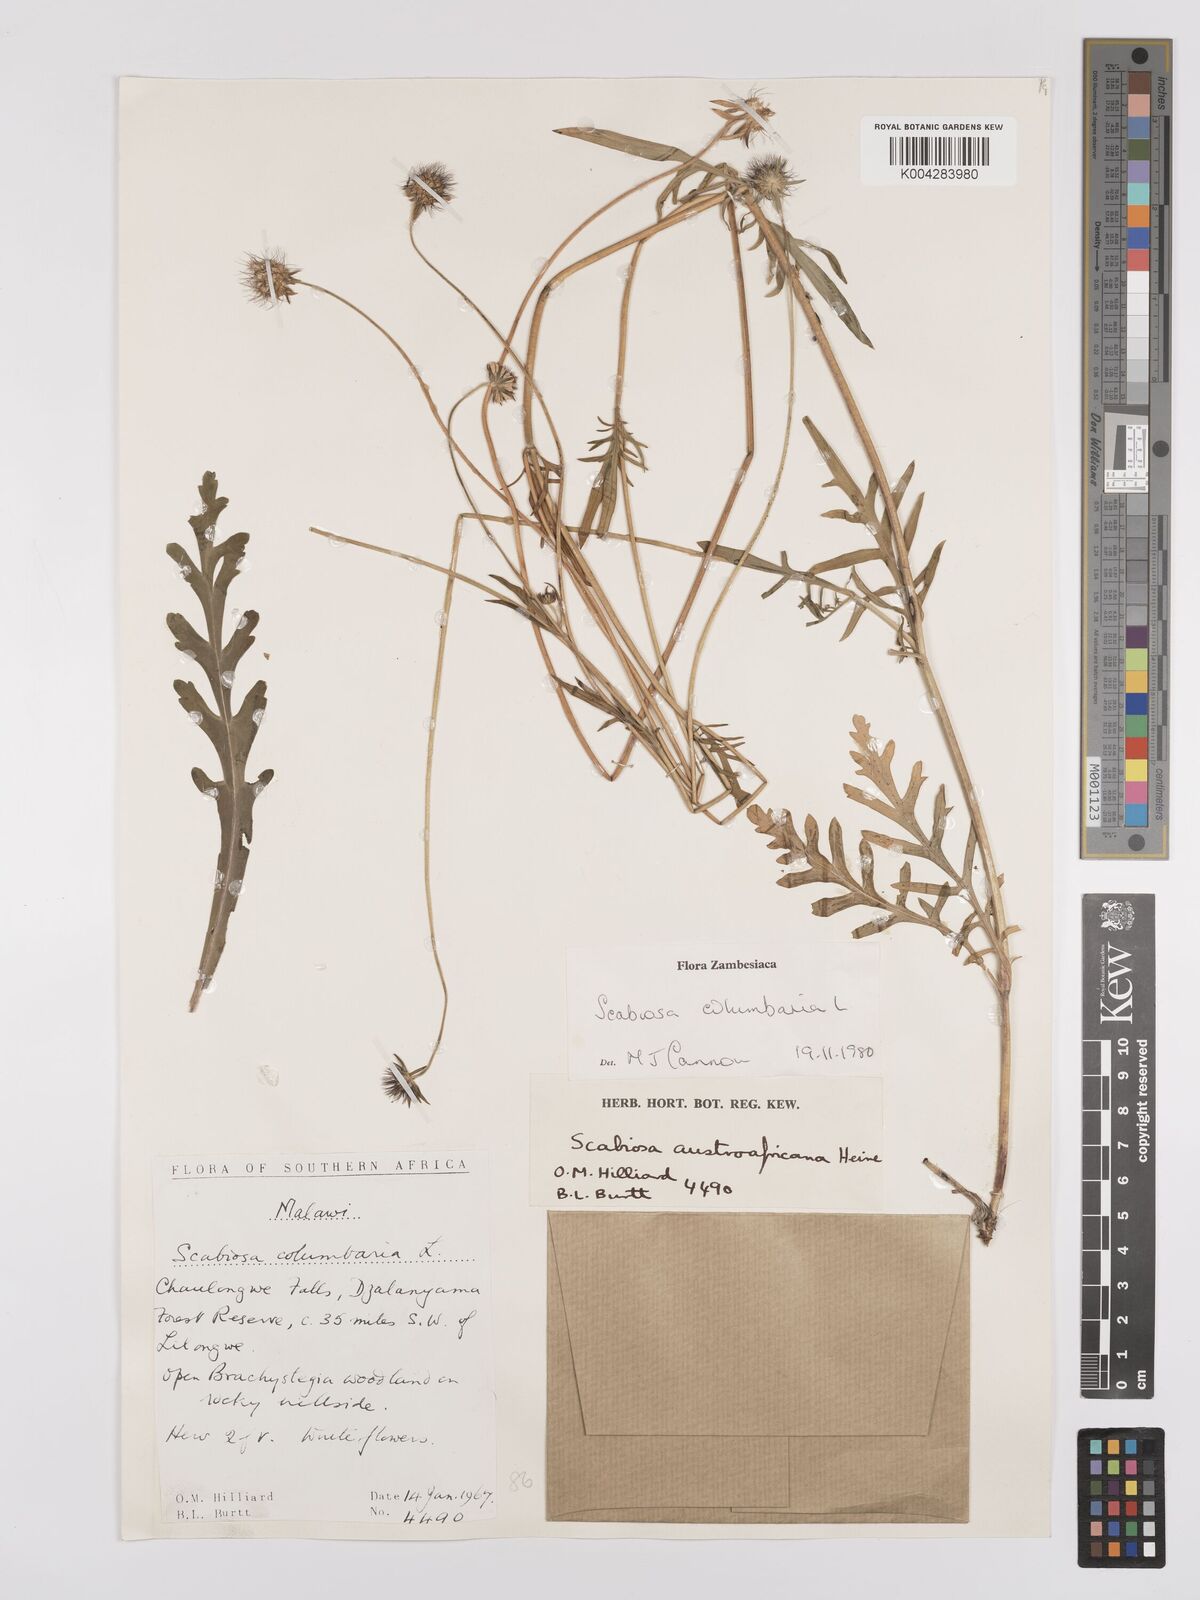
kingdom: Plantae
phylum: Tracheophyta
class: Magnoliopsida
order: Dipsacales
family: Caprifoliaceae
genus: Scabiosa
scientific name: Scabiosa columbaria
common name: Small scabious
